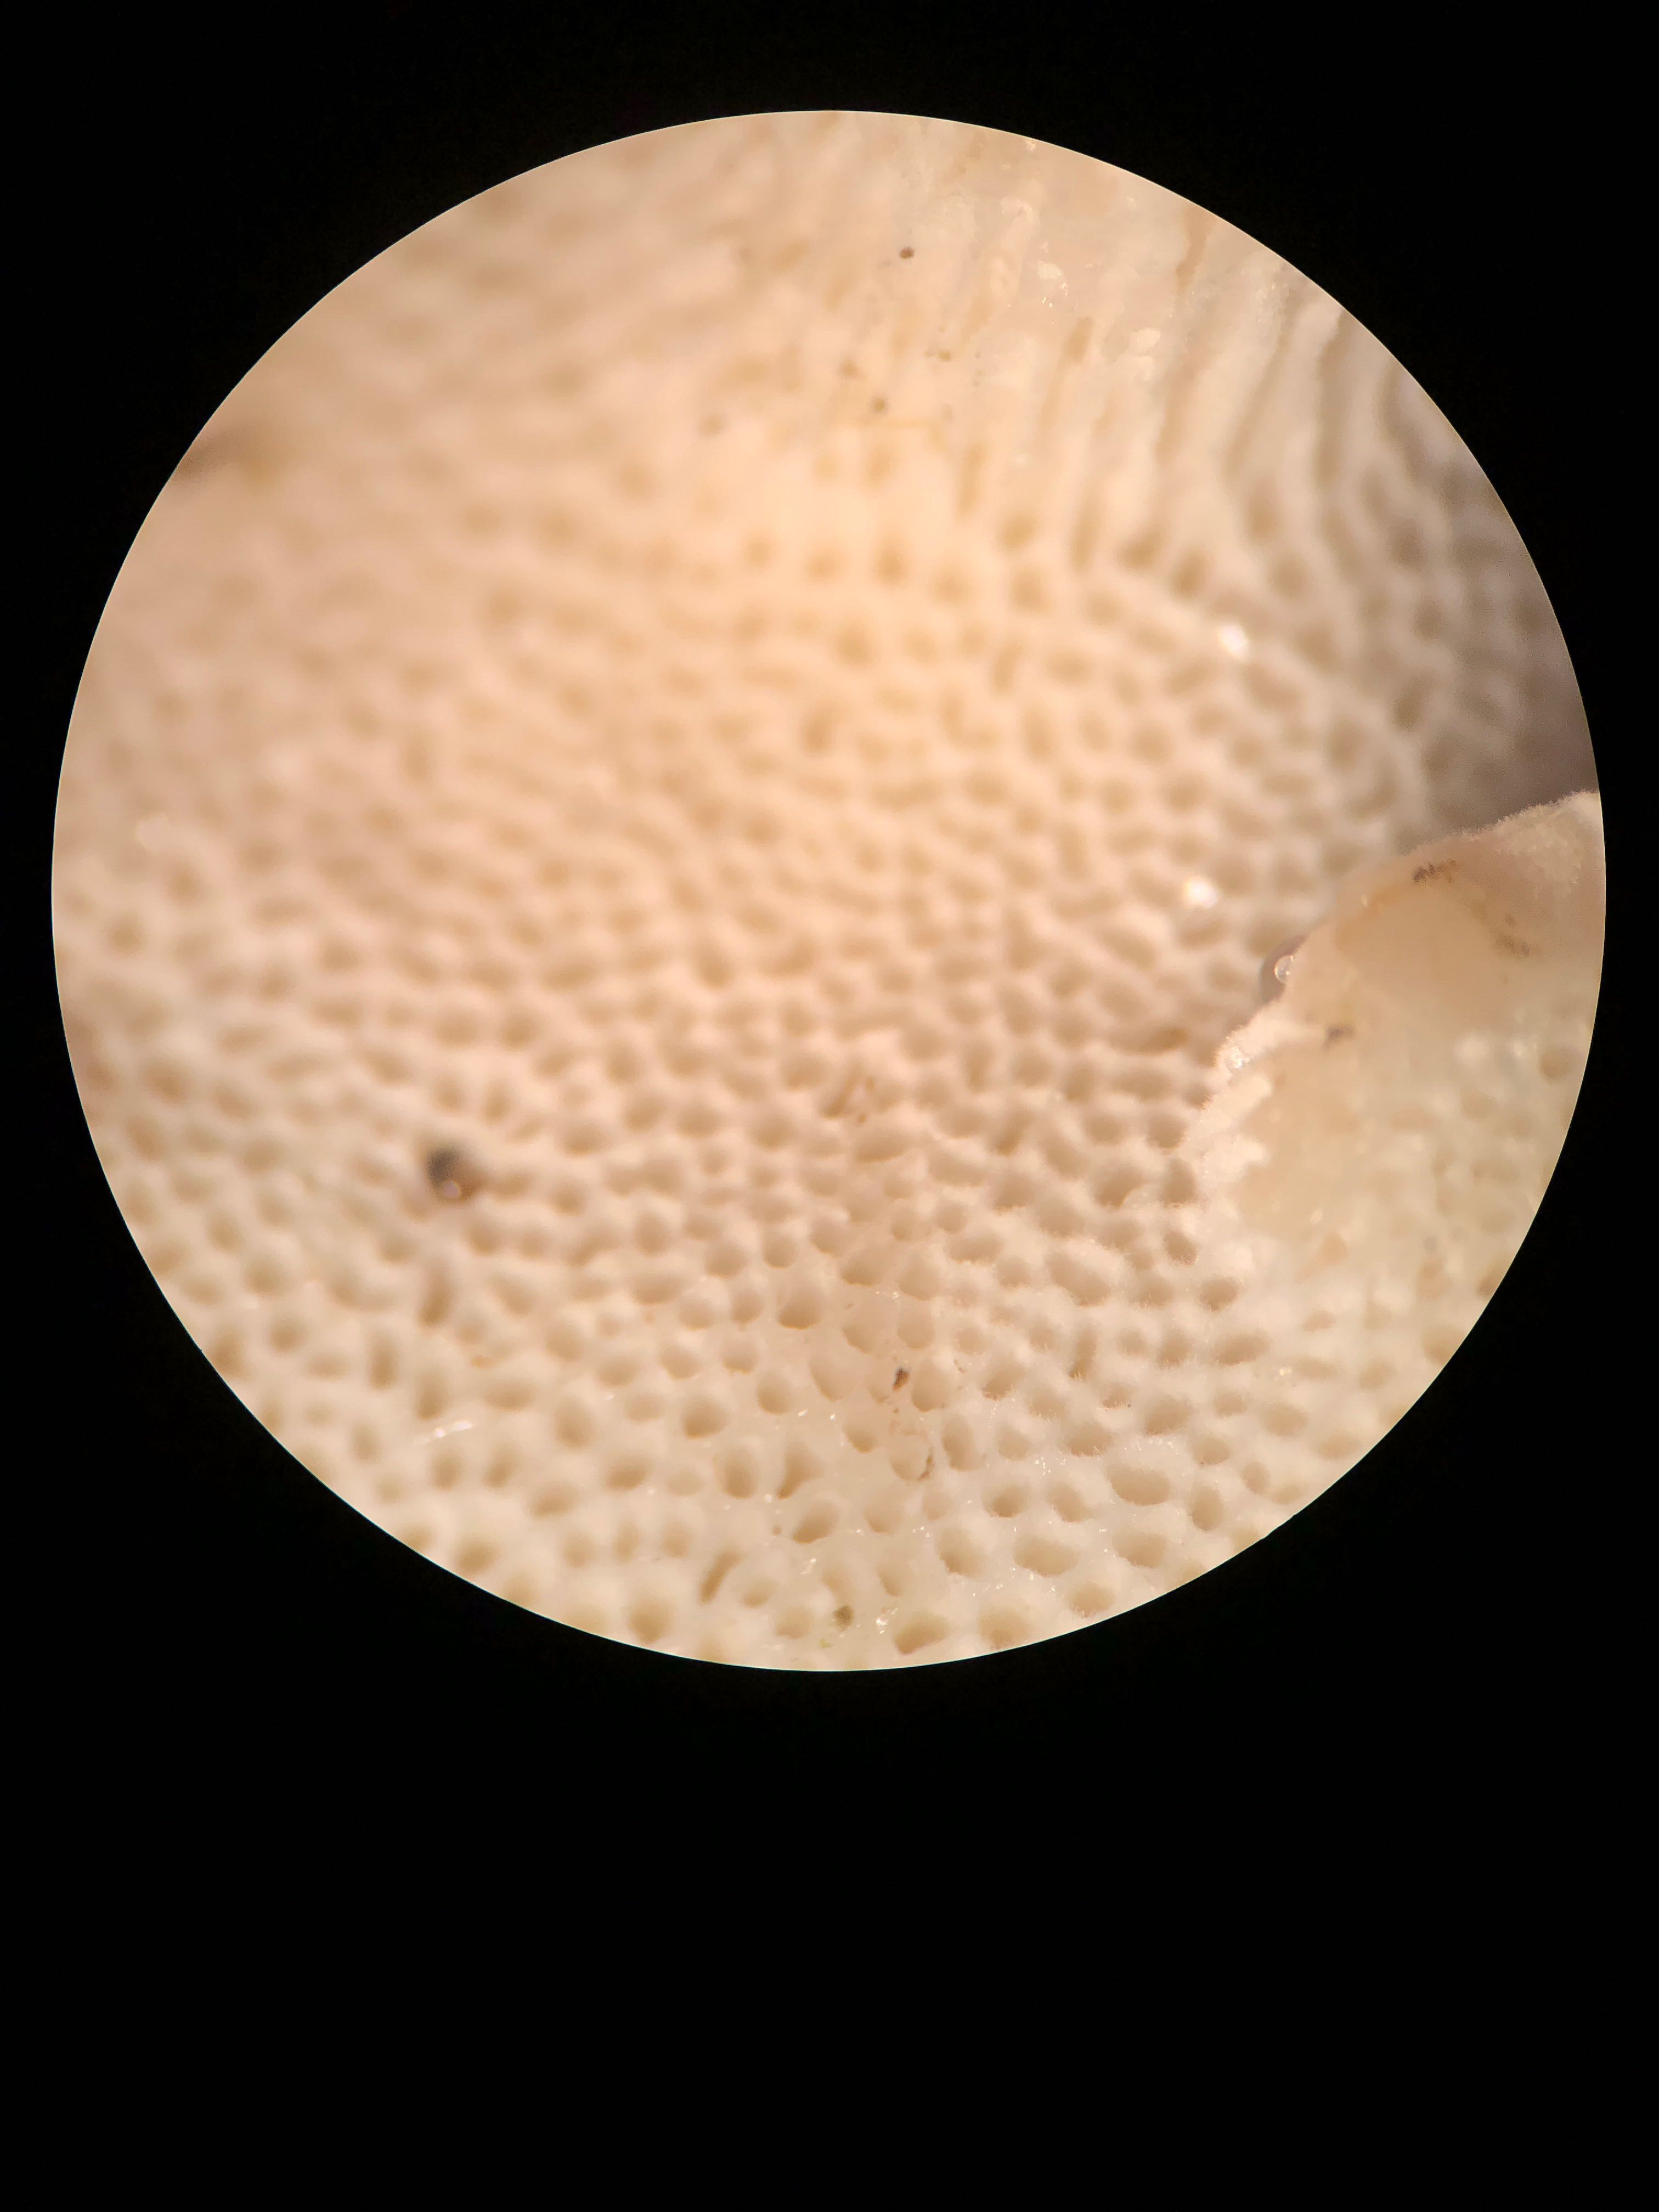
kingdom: Fungi
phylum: Basidiomycota
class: Agaricomycetes
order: Polyporales
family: Fomitopsidaceae
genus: Neoantrodia
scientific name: Neoantrodia serialis
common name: række-sejporesvamp
